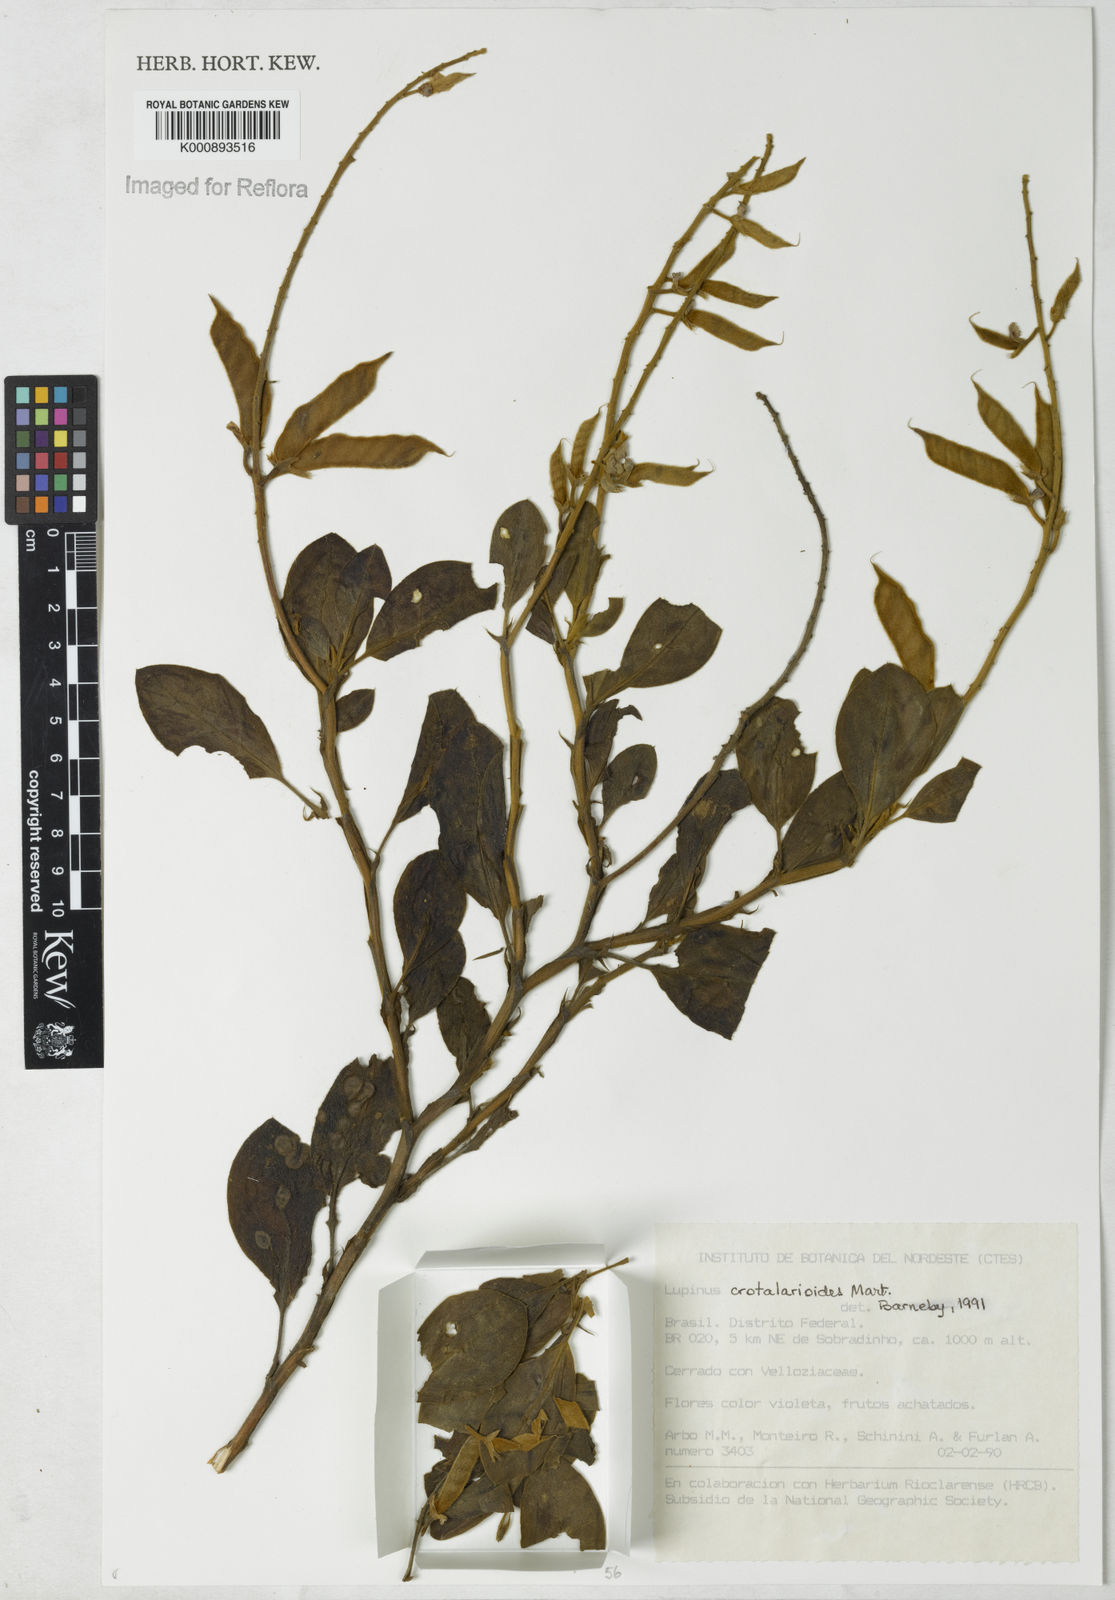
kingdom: Plantae
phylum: Tracheophyta
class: Magnoliopsida
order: Fabales
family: Fabaceae
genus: Lupinus
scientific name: Lupinus crotalarioides
